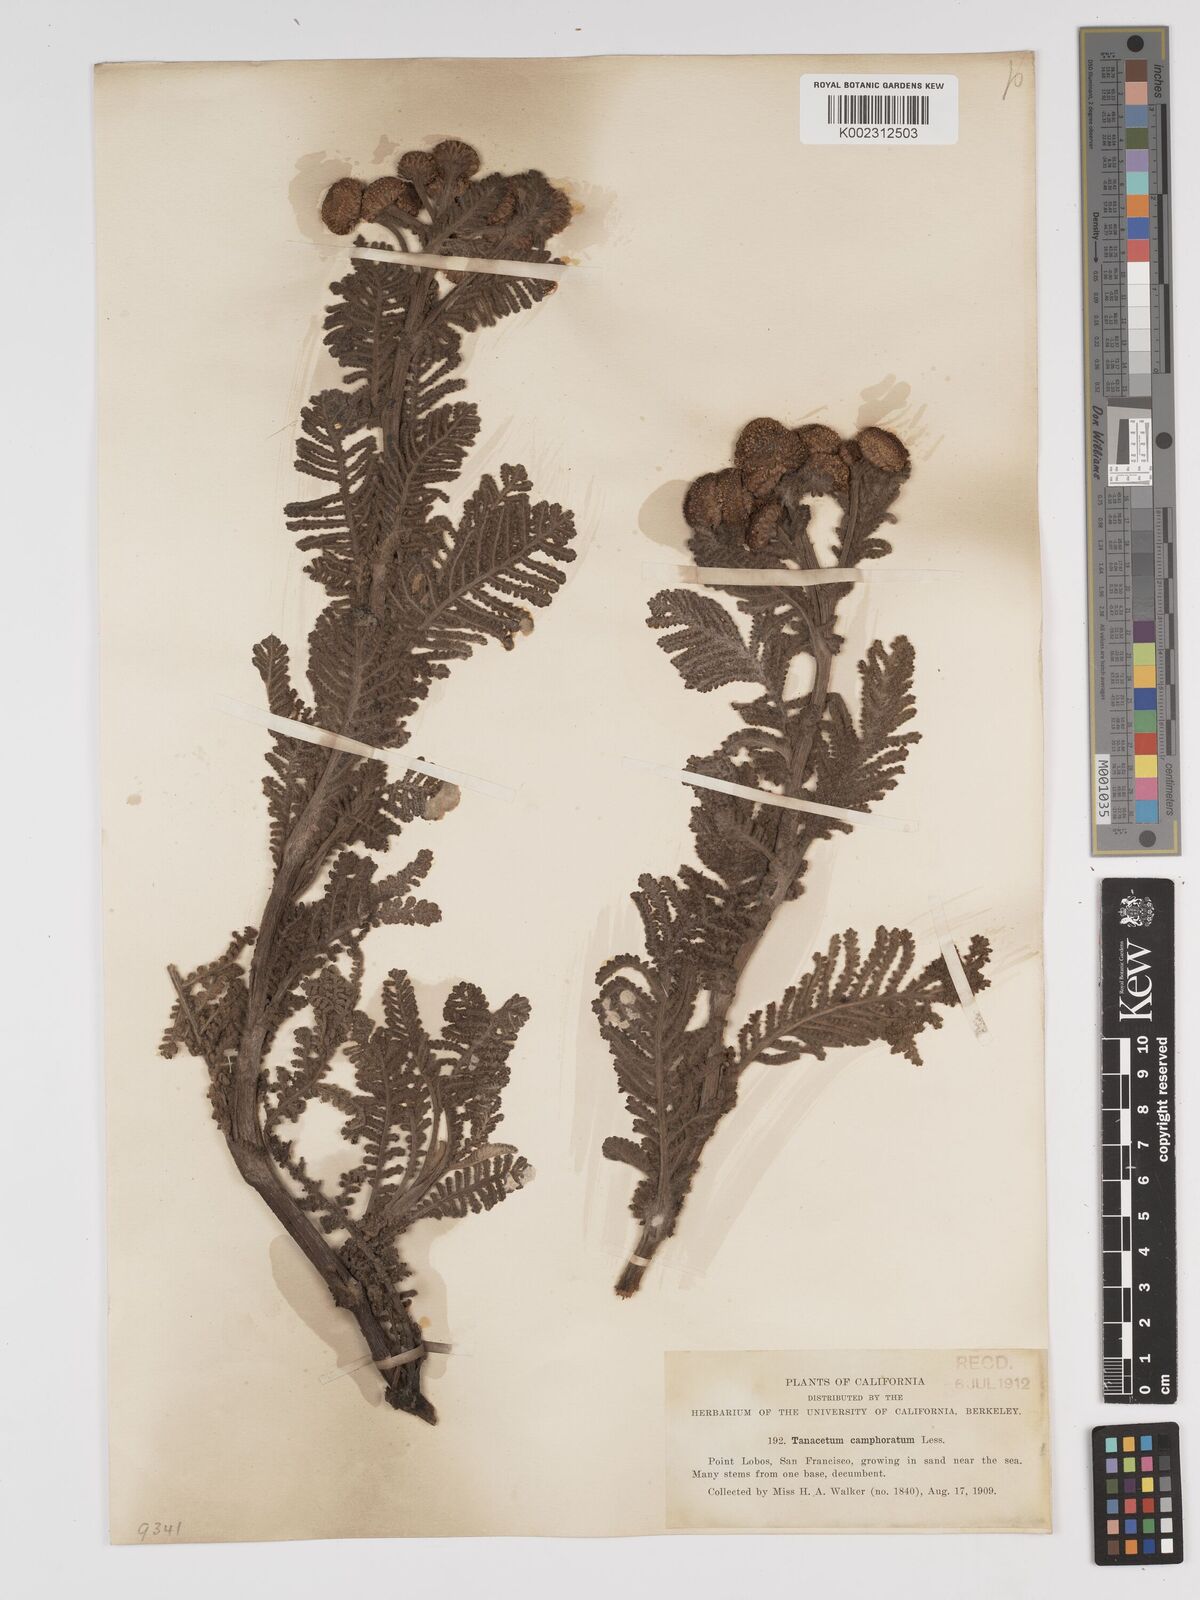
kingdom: Plantae
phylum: Tracheophyta
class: Magnoliopsida
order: Asterales
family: Asteraceae
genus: Tanacetum
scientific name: Tanacetum bipinnatum
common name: Dwarf tansy
